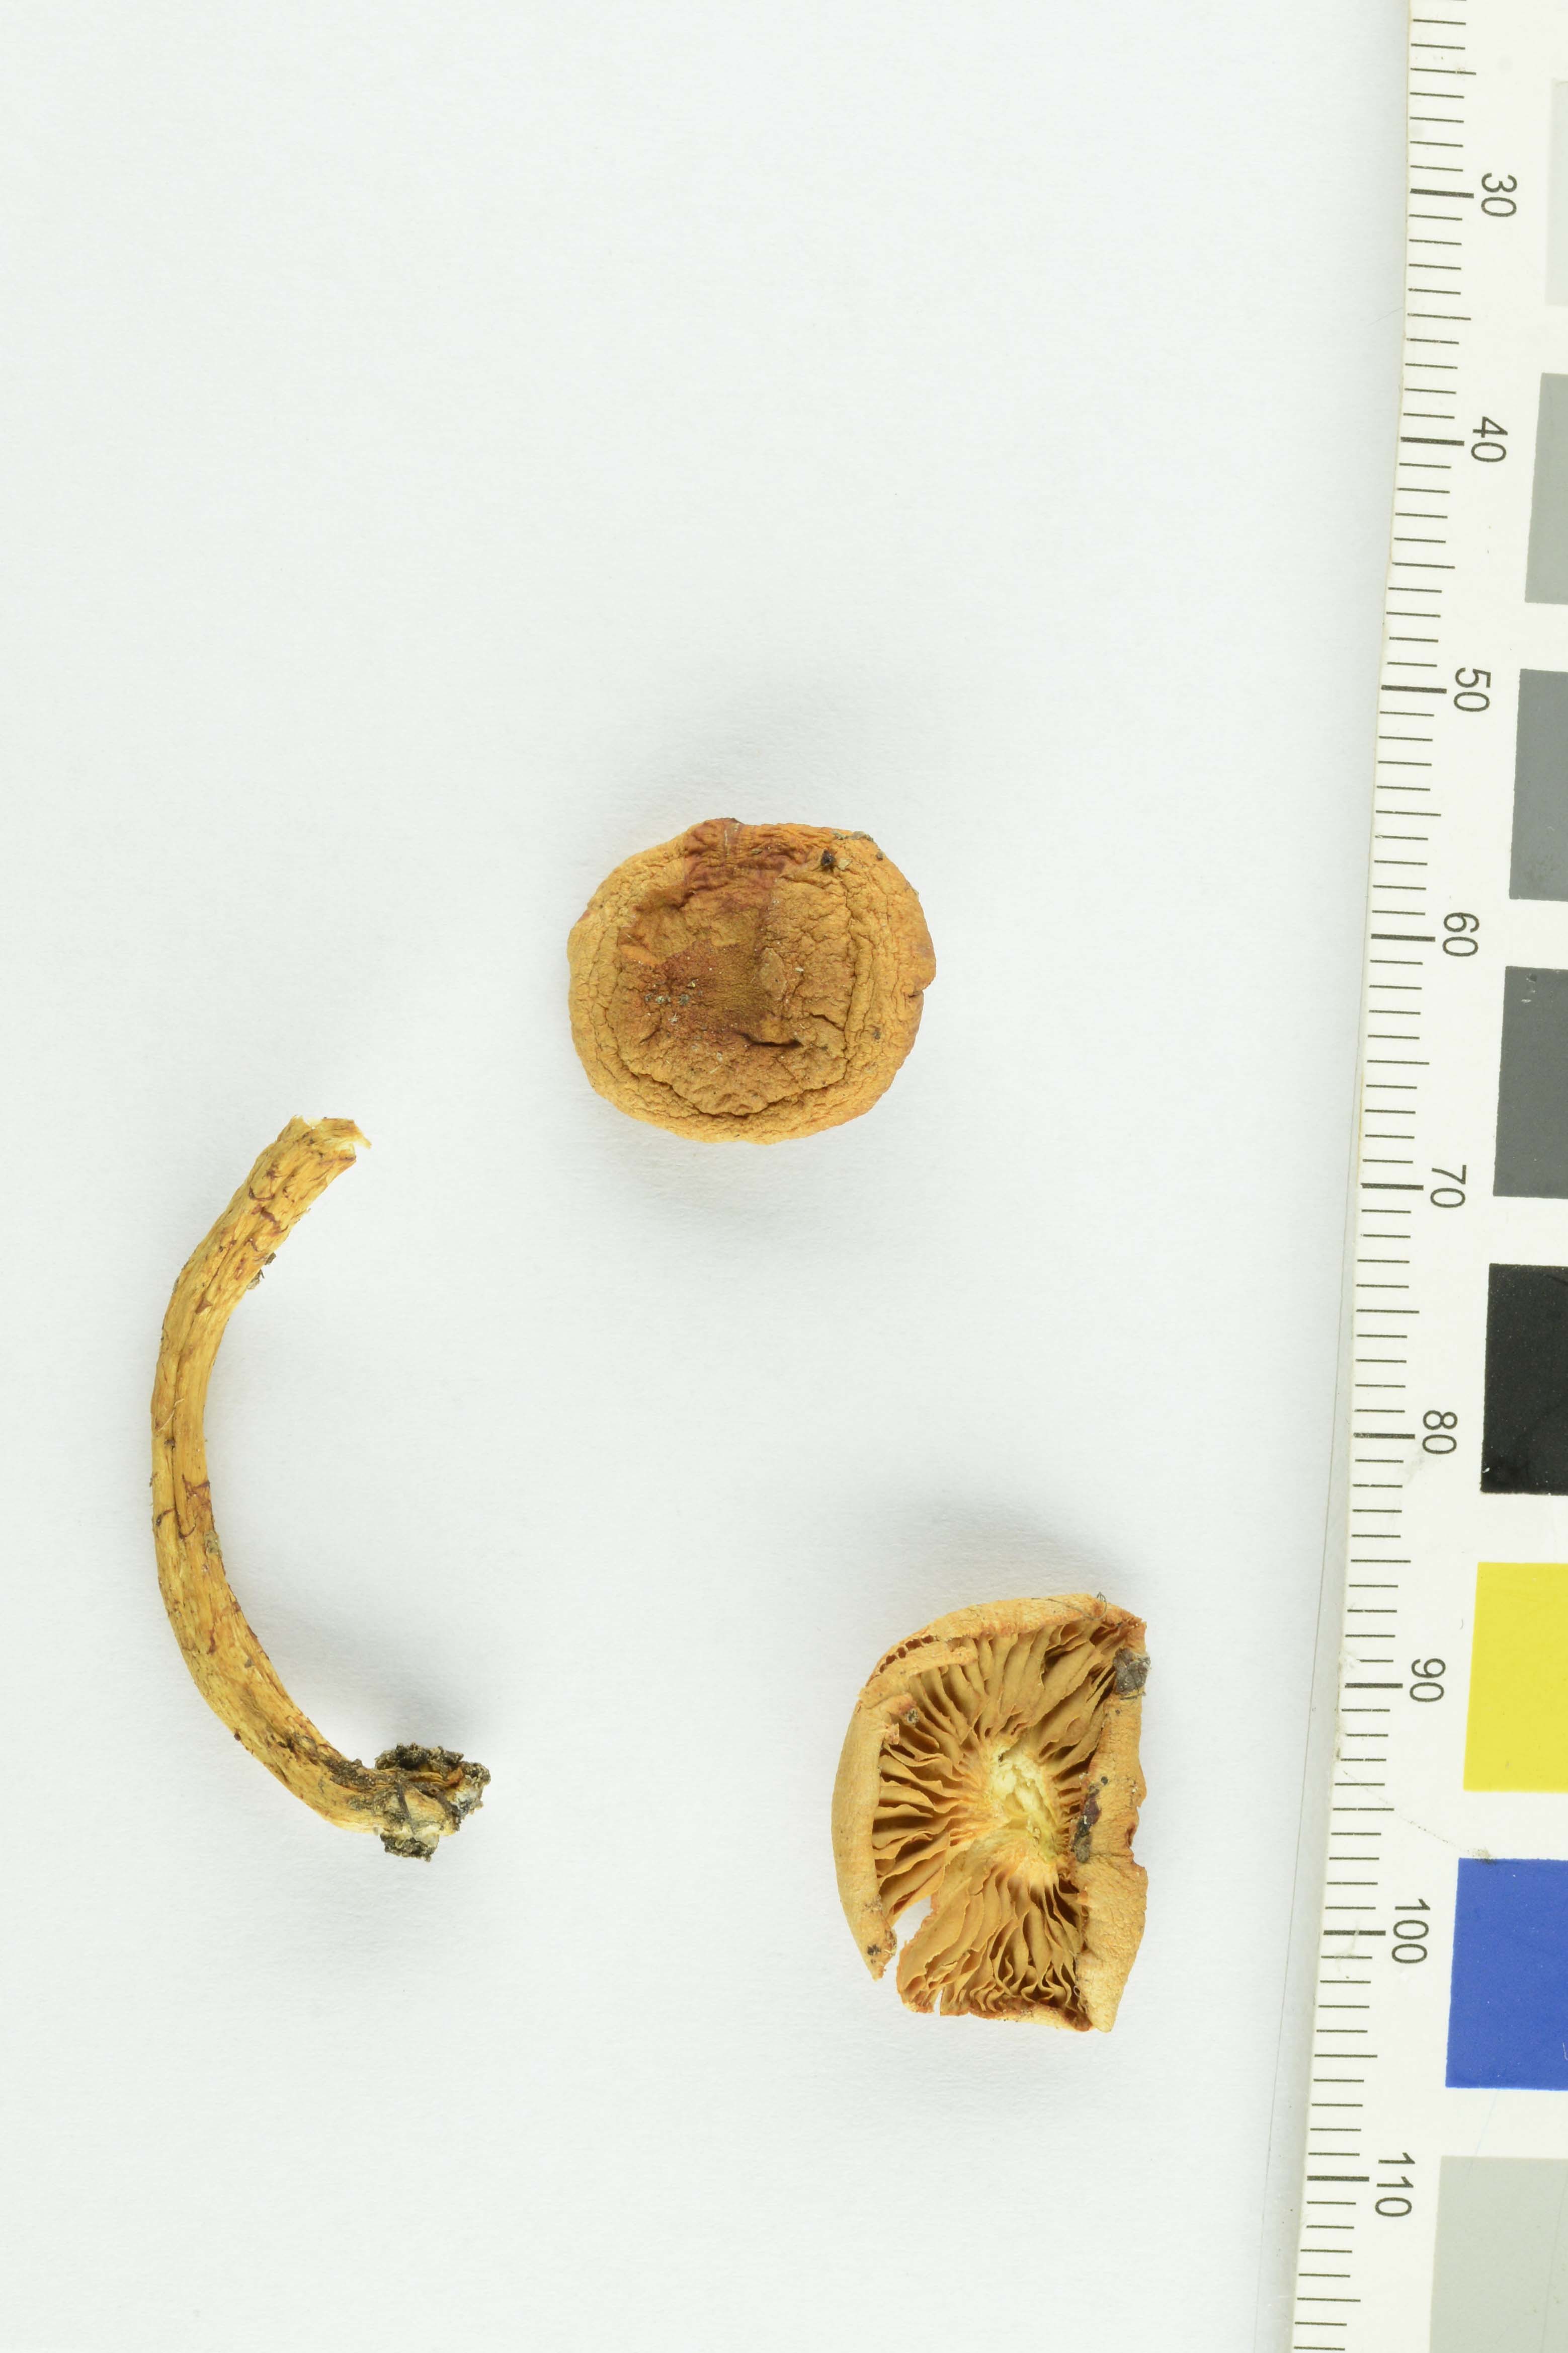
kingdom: Fungi
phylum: Basidiomycota
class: Agaricomycetes
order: Agaricales
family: Strophariaceae
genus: Pyrrhulomyces
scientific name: Pyrrhulomyces astragalinus
